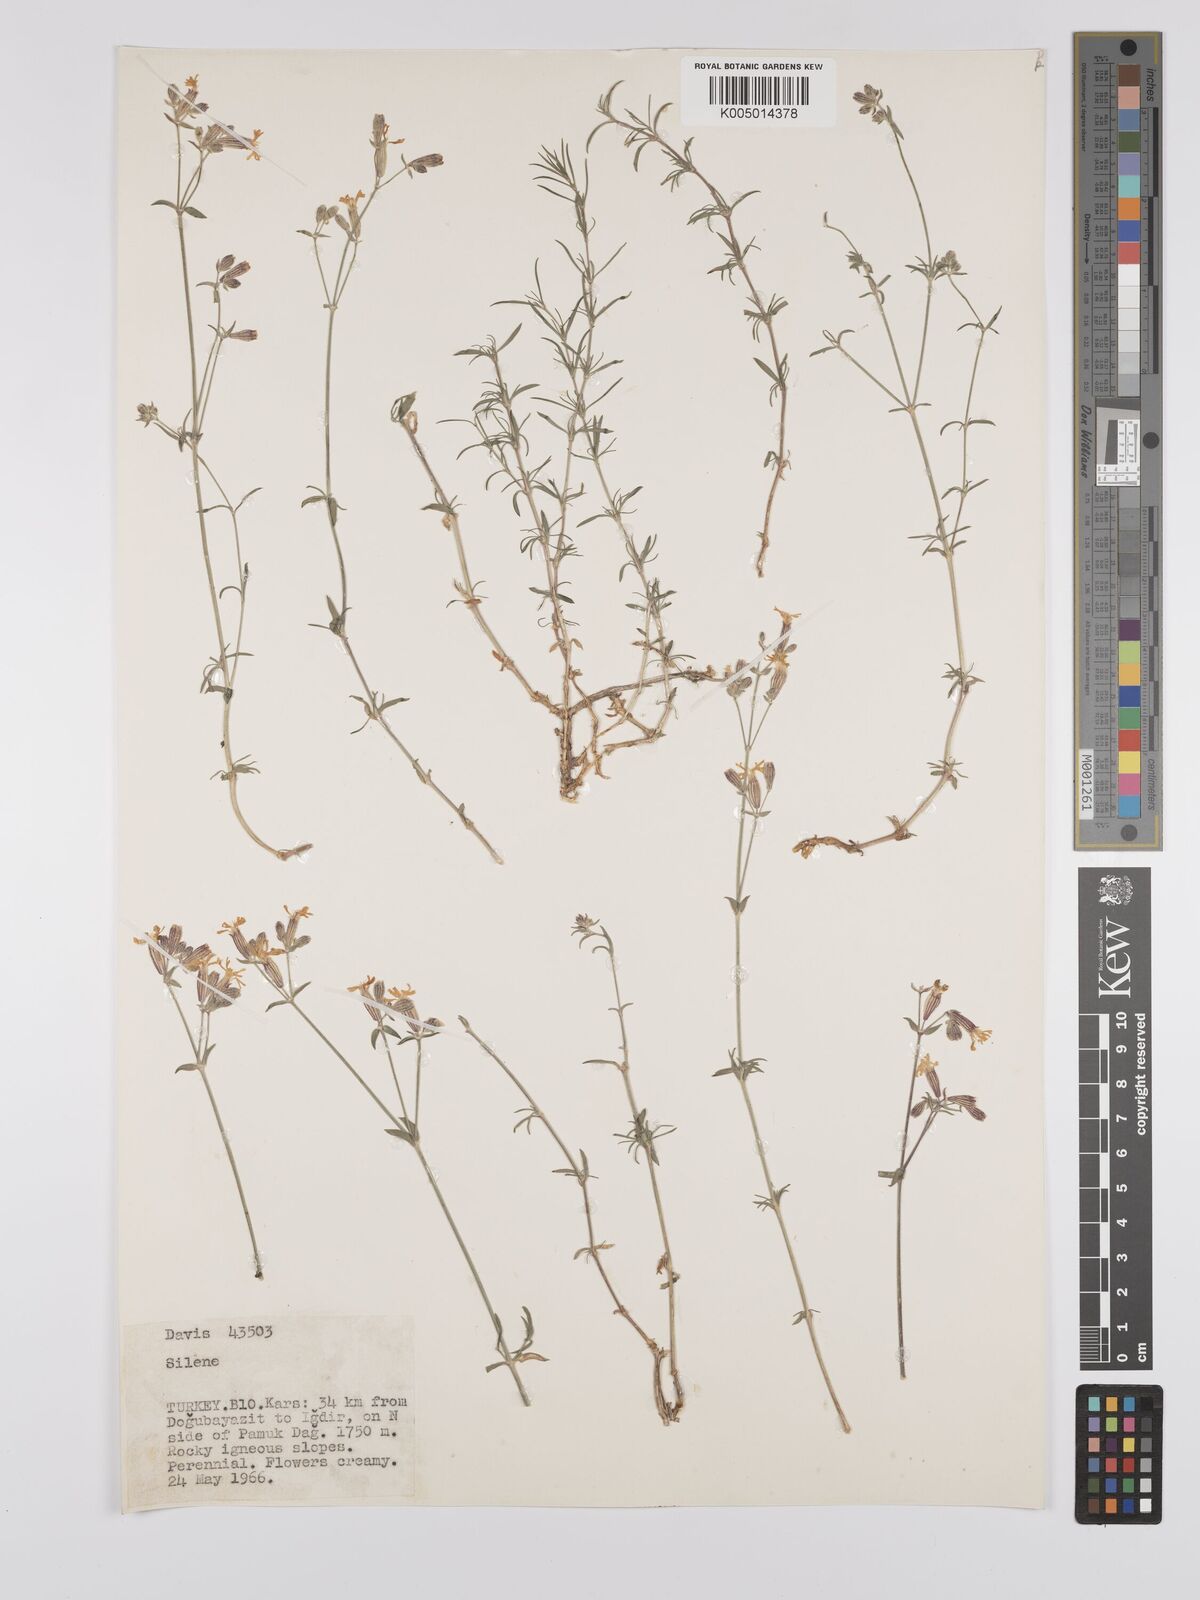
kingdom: Plantae
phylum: Tracheophyta
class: Magnoliopsida
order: Caryophyllales
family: Caryophyllaceae
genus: Silene
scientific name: Silene
